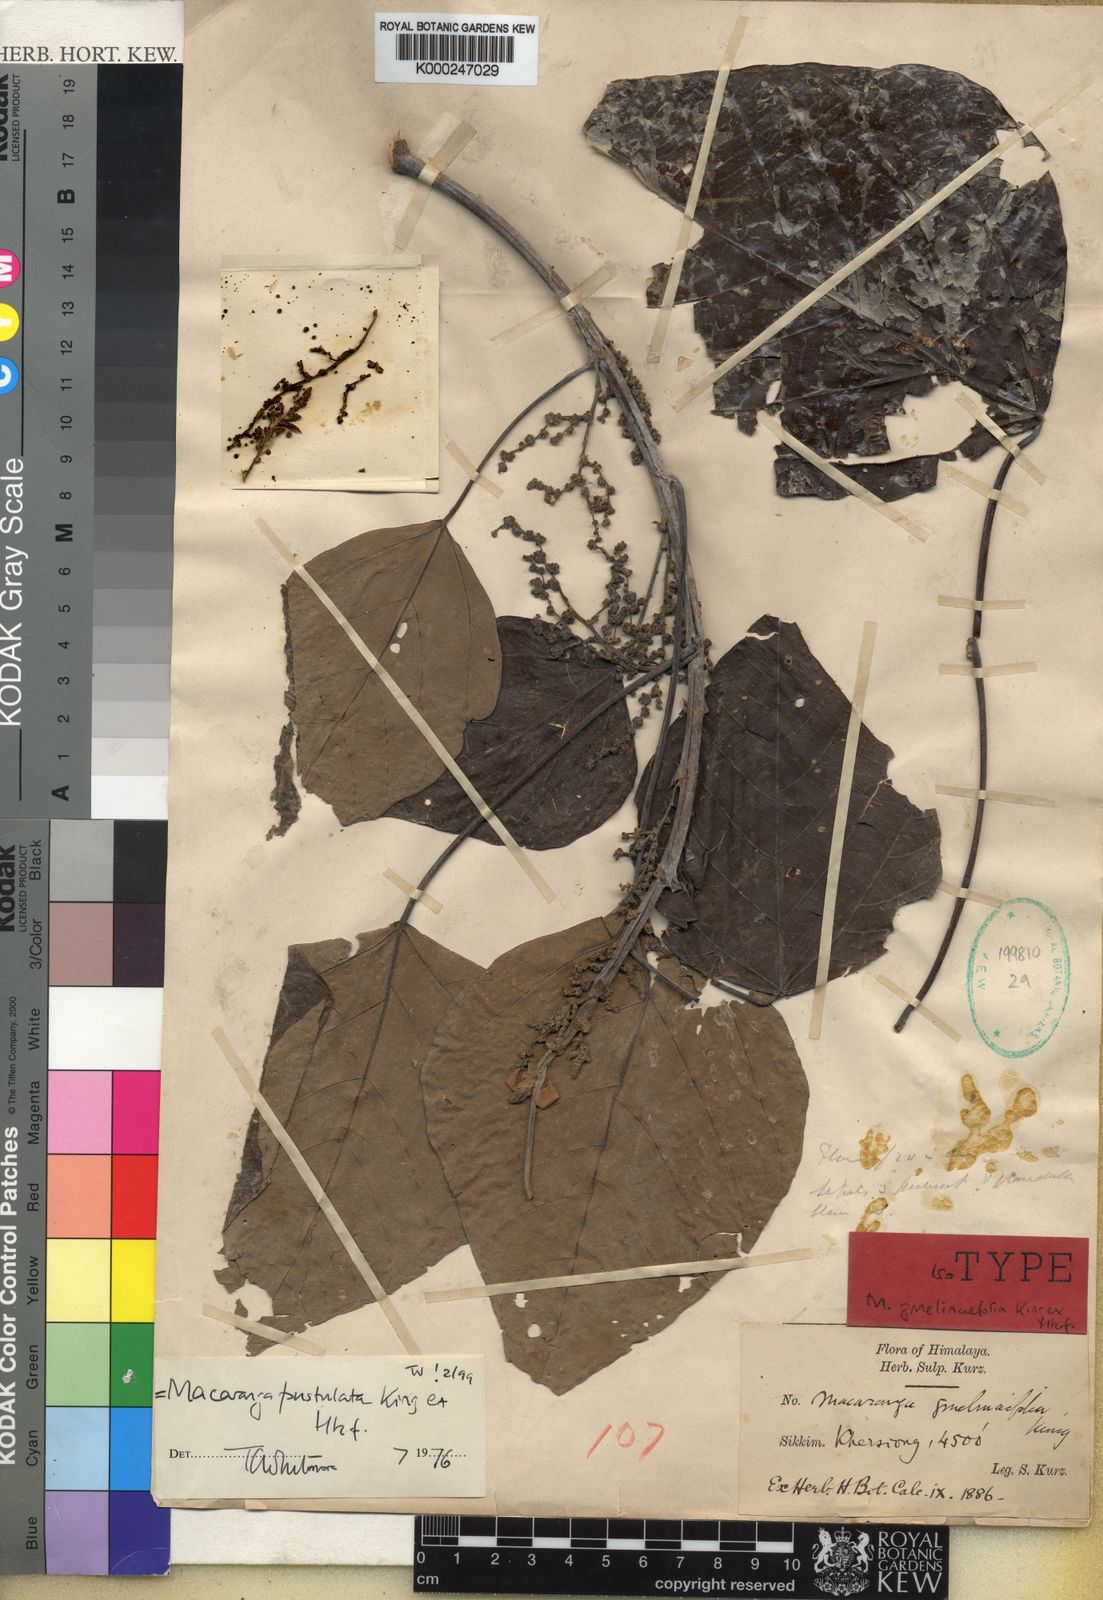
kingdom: Plantae
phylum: Tracheophyta
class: Magnoliopsida
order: Malpighiales
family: Euphorbiaceae
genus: Macaranga
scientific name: Macaranga denticulata
